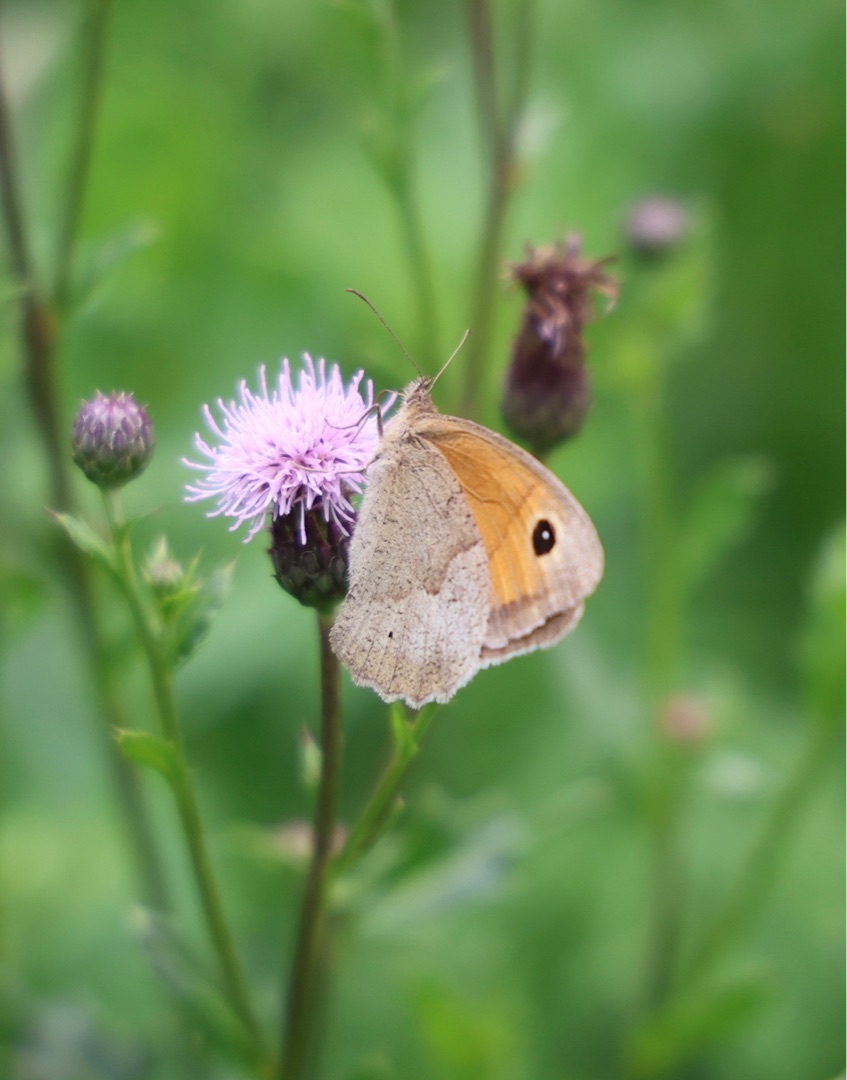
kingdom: Animalia
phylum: Arthropoda
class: Insecta
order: Lepidoptera
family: Nymphalidae
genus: Maniola
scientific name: Maniola jurtina
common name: Græsrandøje
